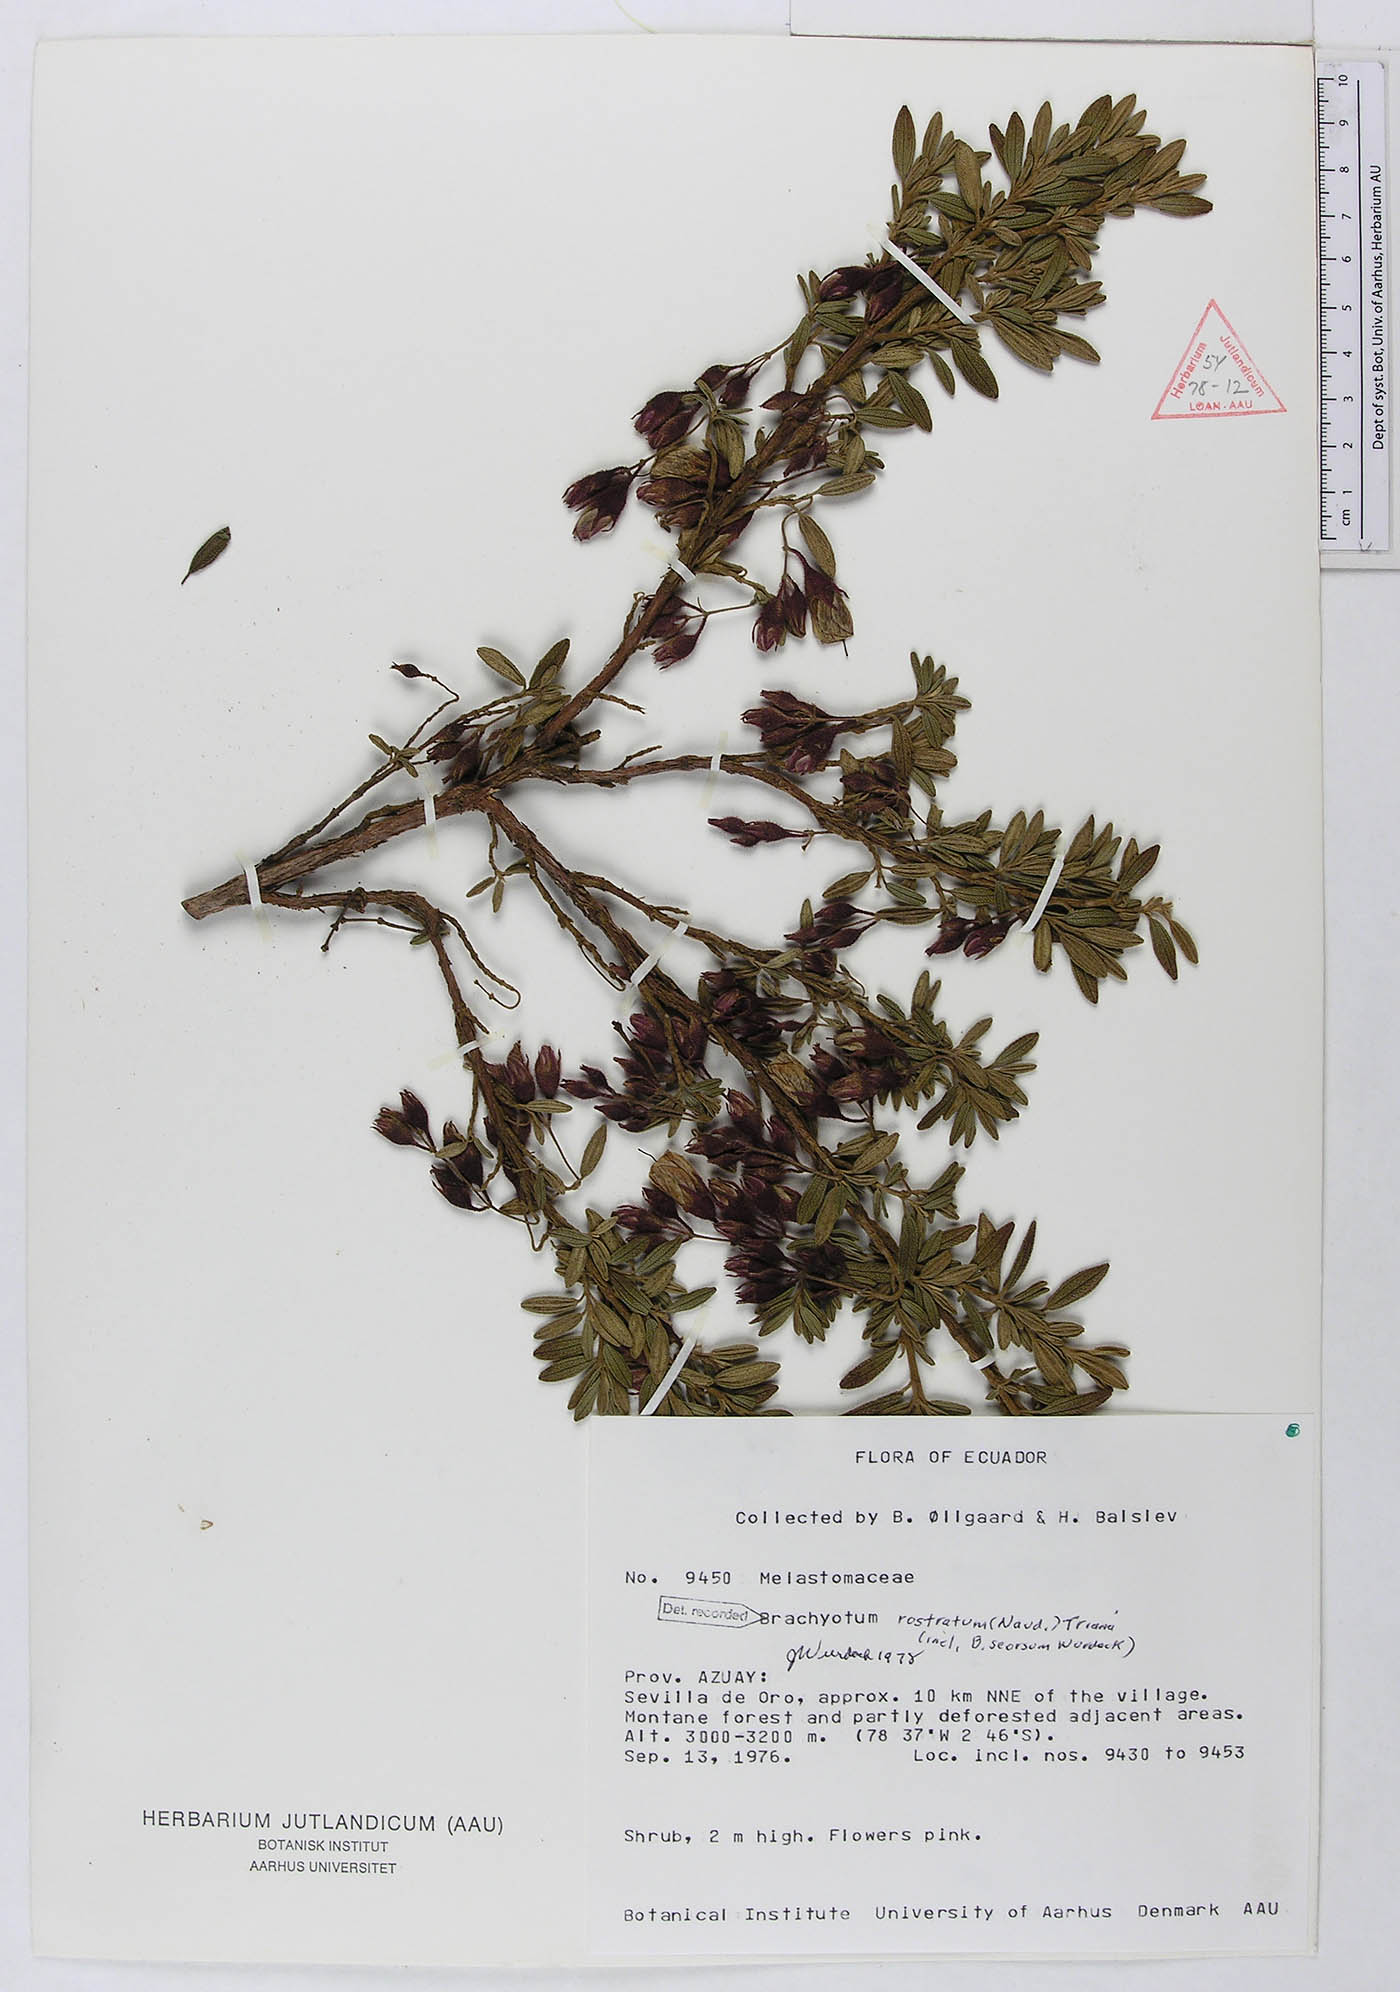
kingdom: Plantae
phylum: Tracheophyta
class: Magnoliopsida
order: Myrtales
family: Melastomataceae
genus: Brachyotum
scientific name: Brachyotum rostratum
